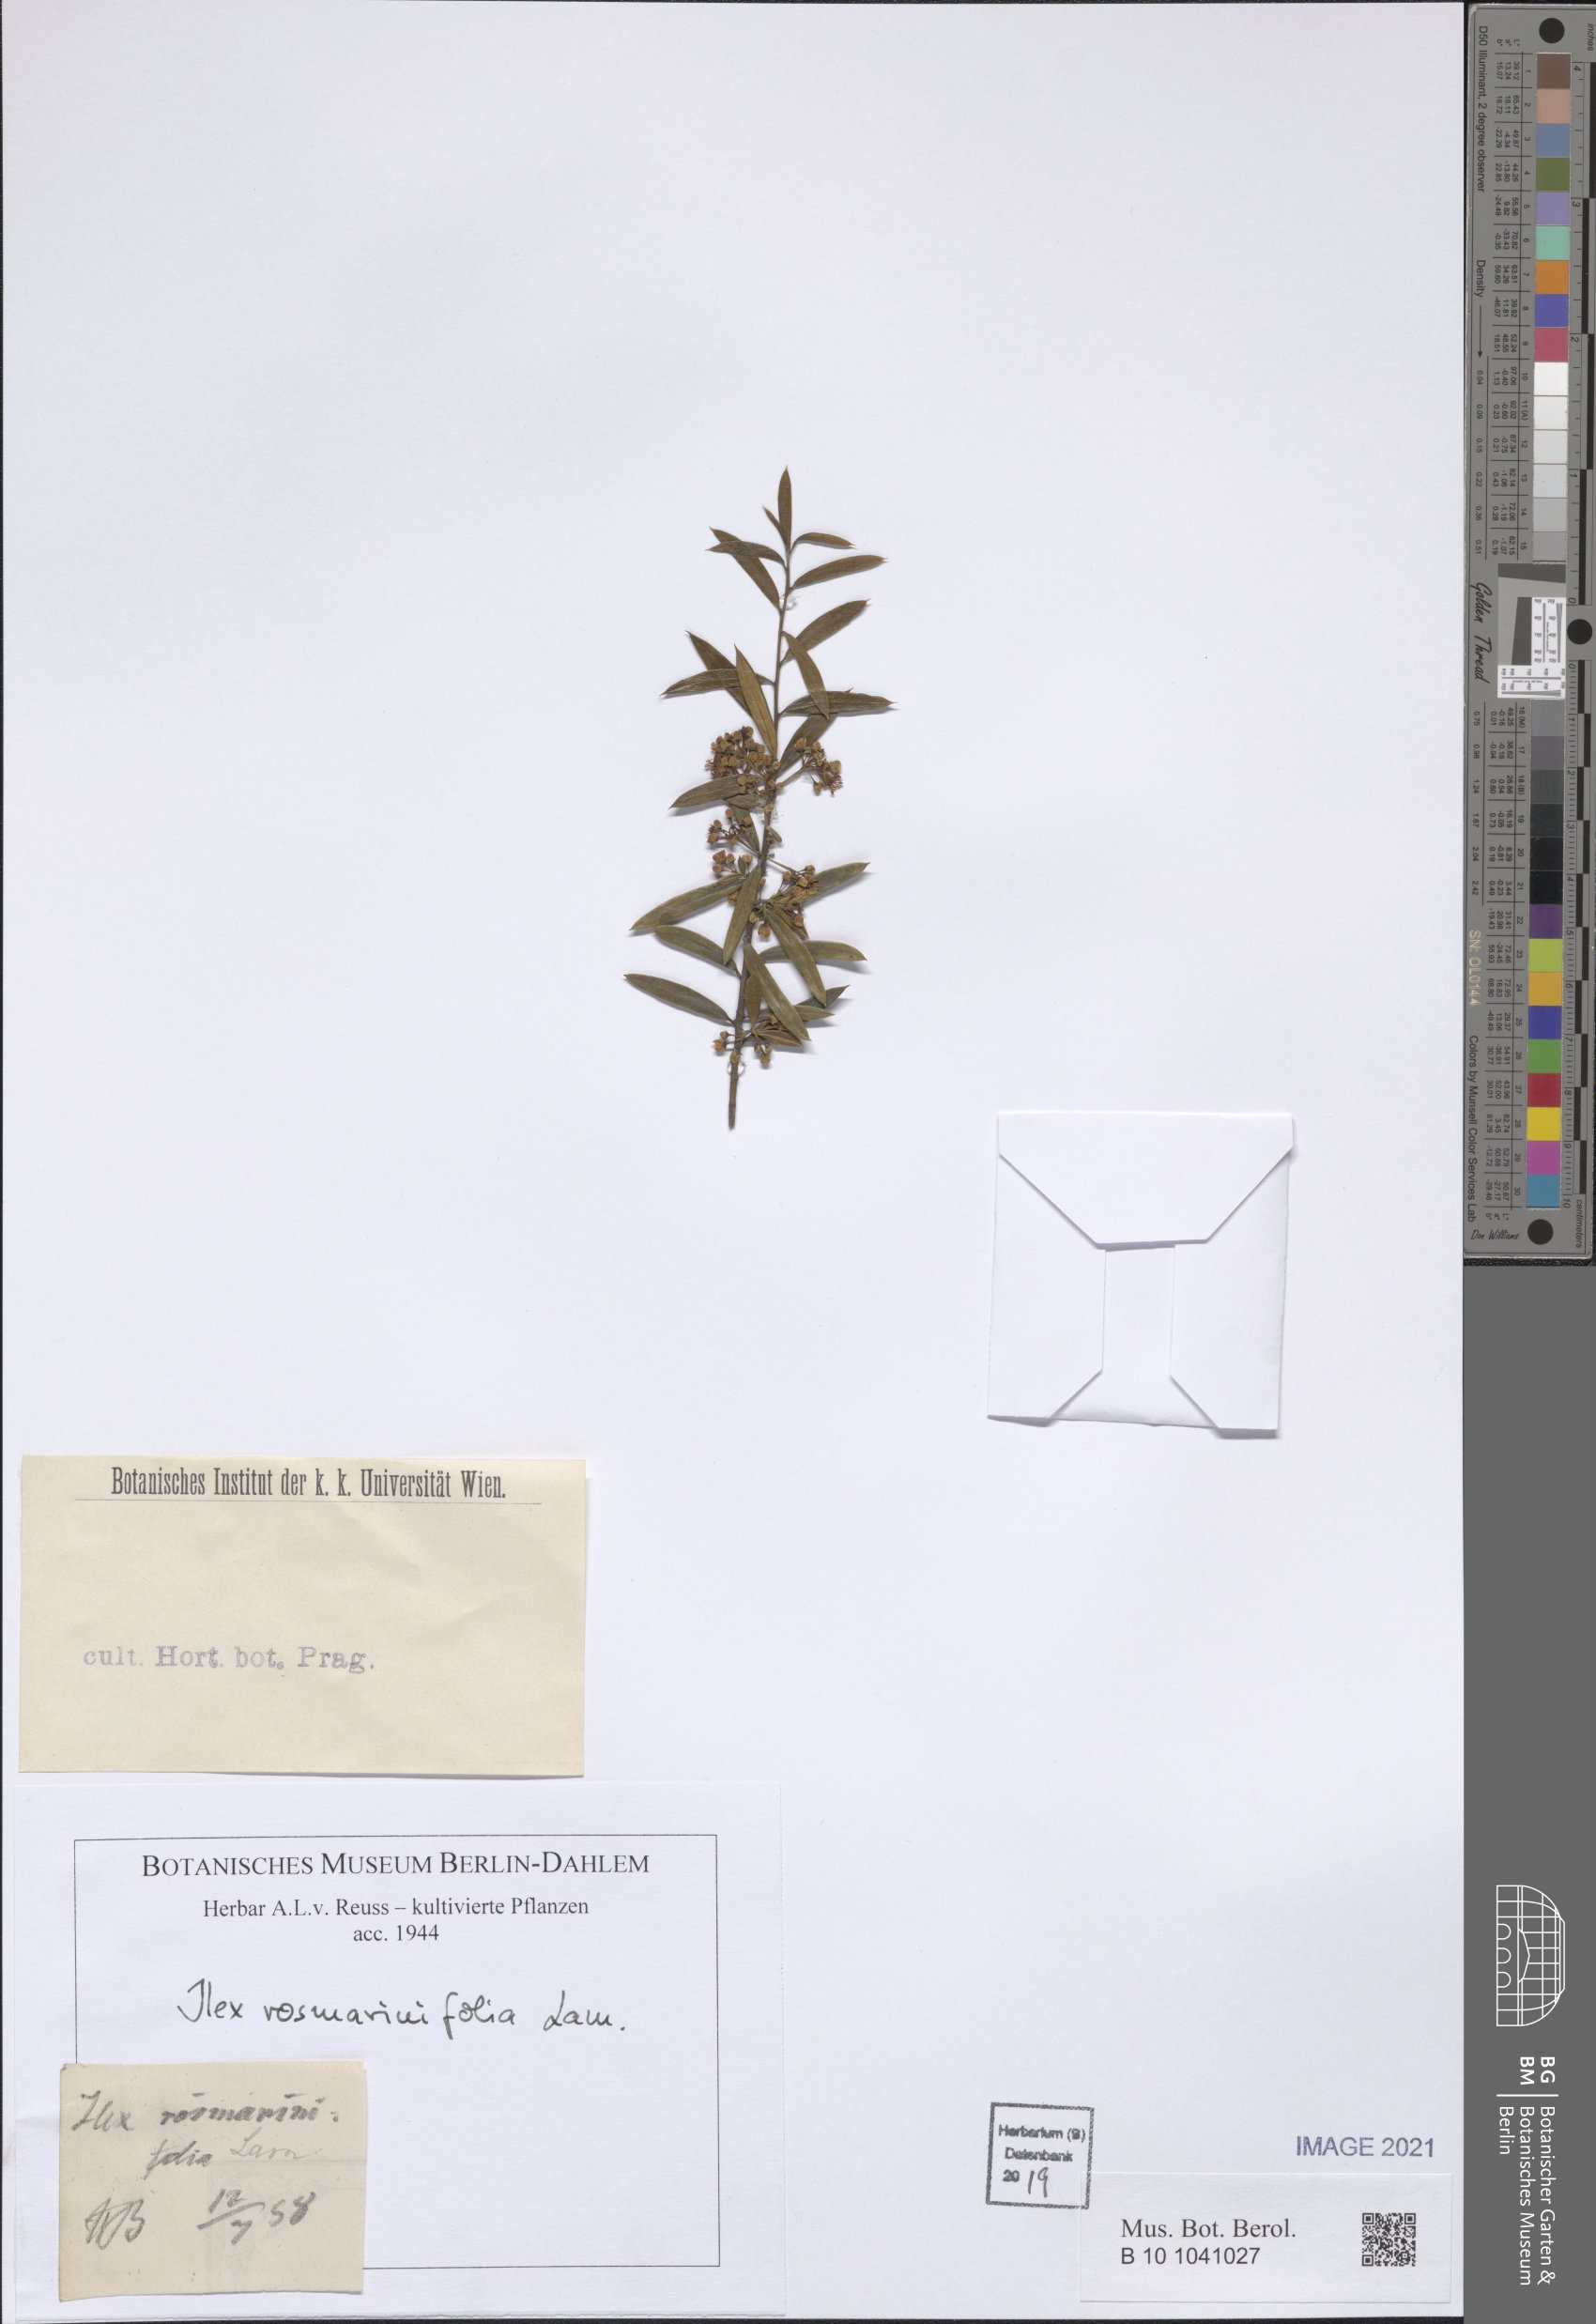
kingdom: Plantae
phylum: Tracheophyta
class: Magnoliopsida
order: Aquifoliales
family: Aquifoliaceae
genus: Ilex
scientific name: Ilex cassine
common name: Dahoon
